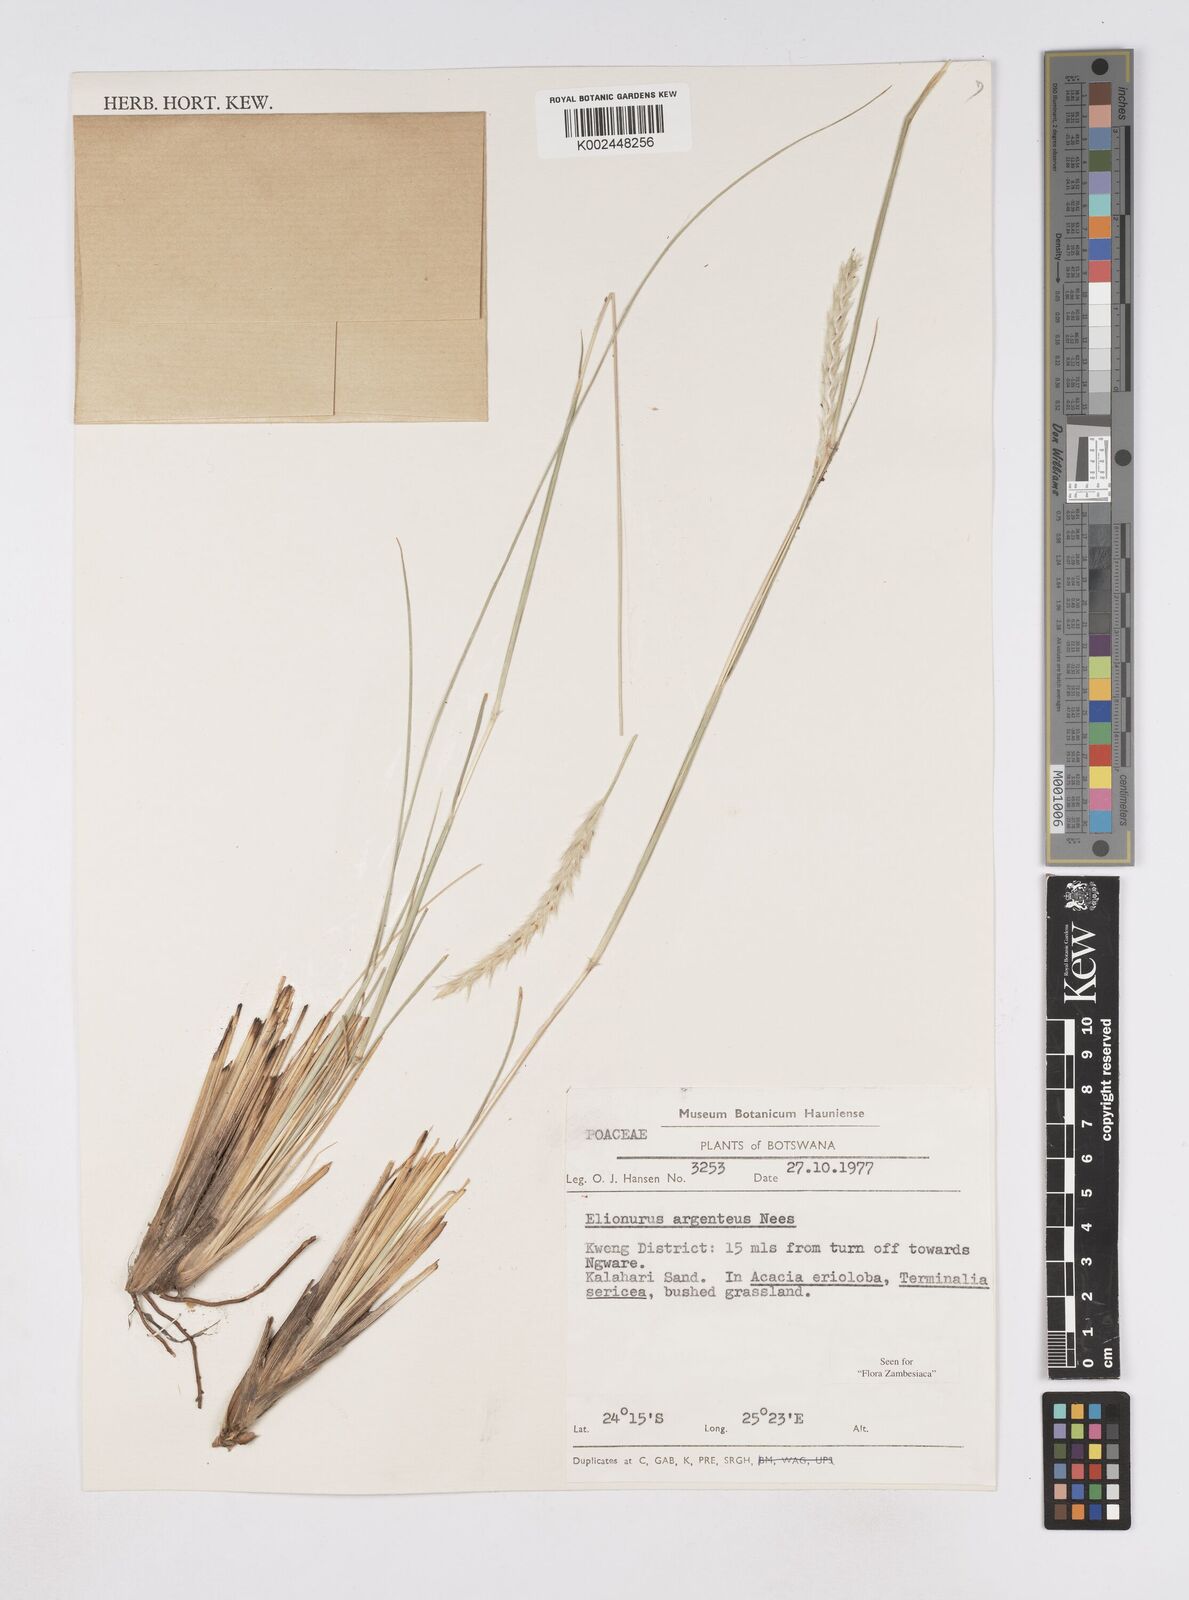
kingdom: Plantae
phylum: Tracheophyta
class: Liliopsida
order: Poales
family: Poaceae
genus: Elionurus
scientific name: Elionurus muticus
